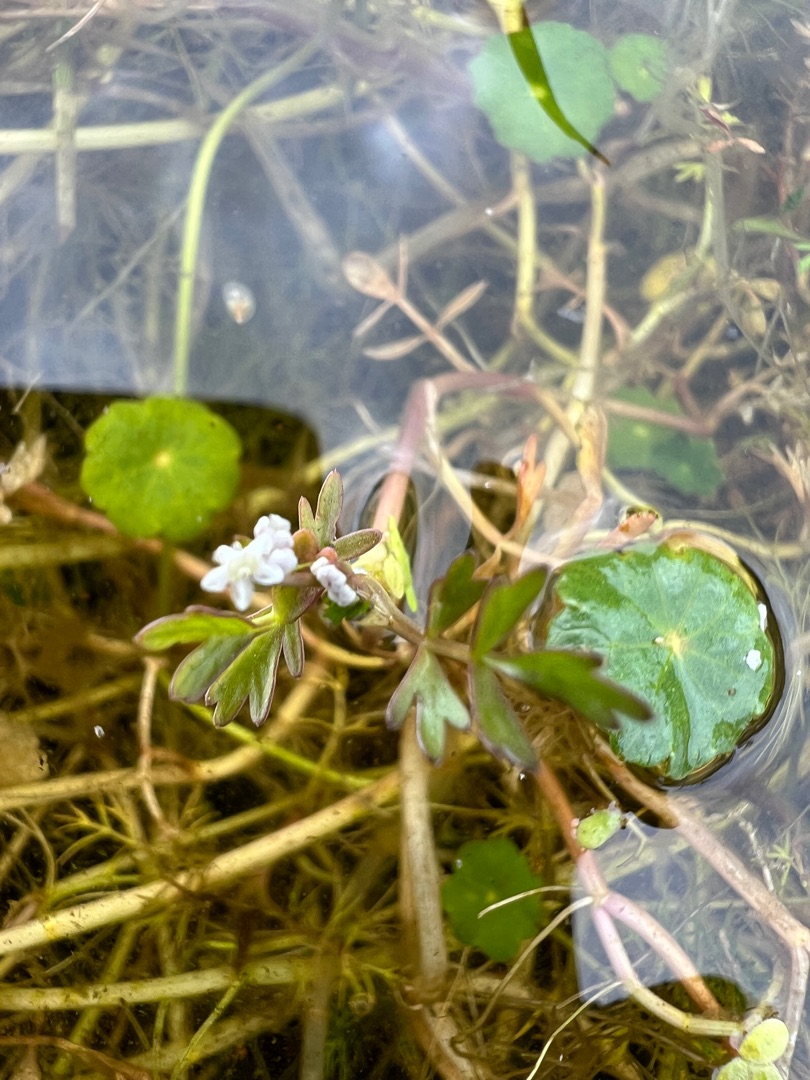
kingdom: Plantae
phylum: Tracheophyta
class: Magnoliopsida
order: Apiales
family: Apiaceae
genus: Helosciadium
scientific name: Helosciadium inundatum
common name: Svømmende sumpskærm
